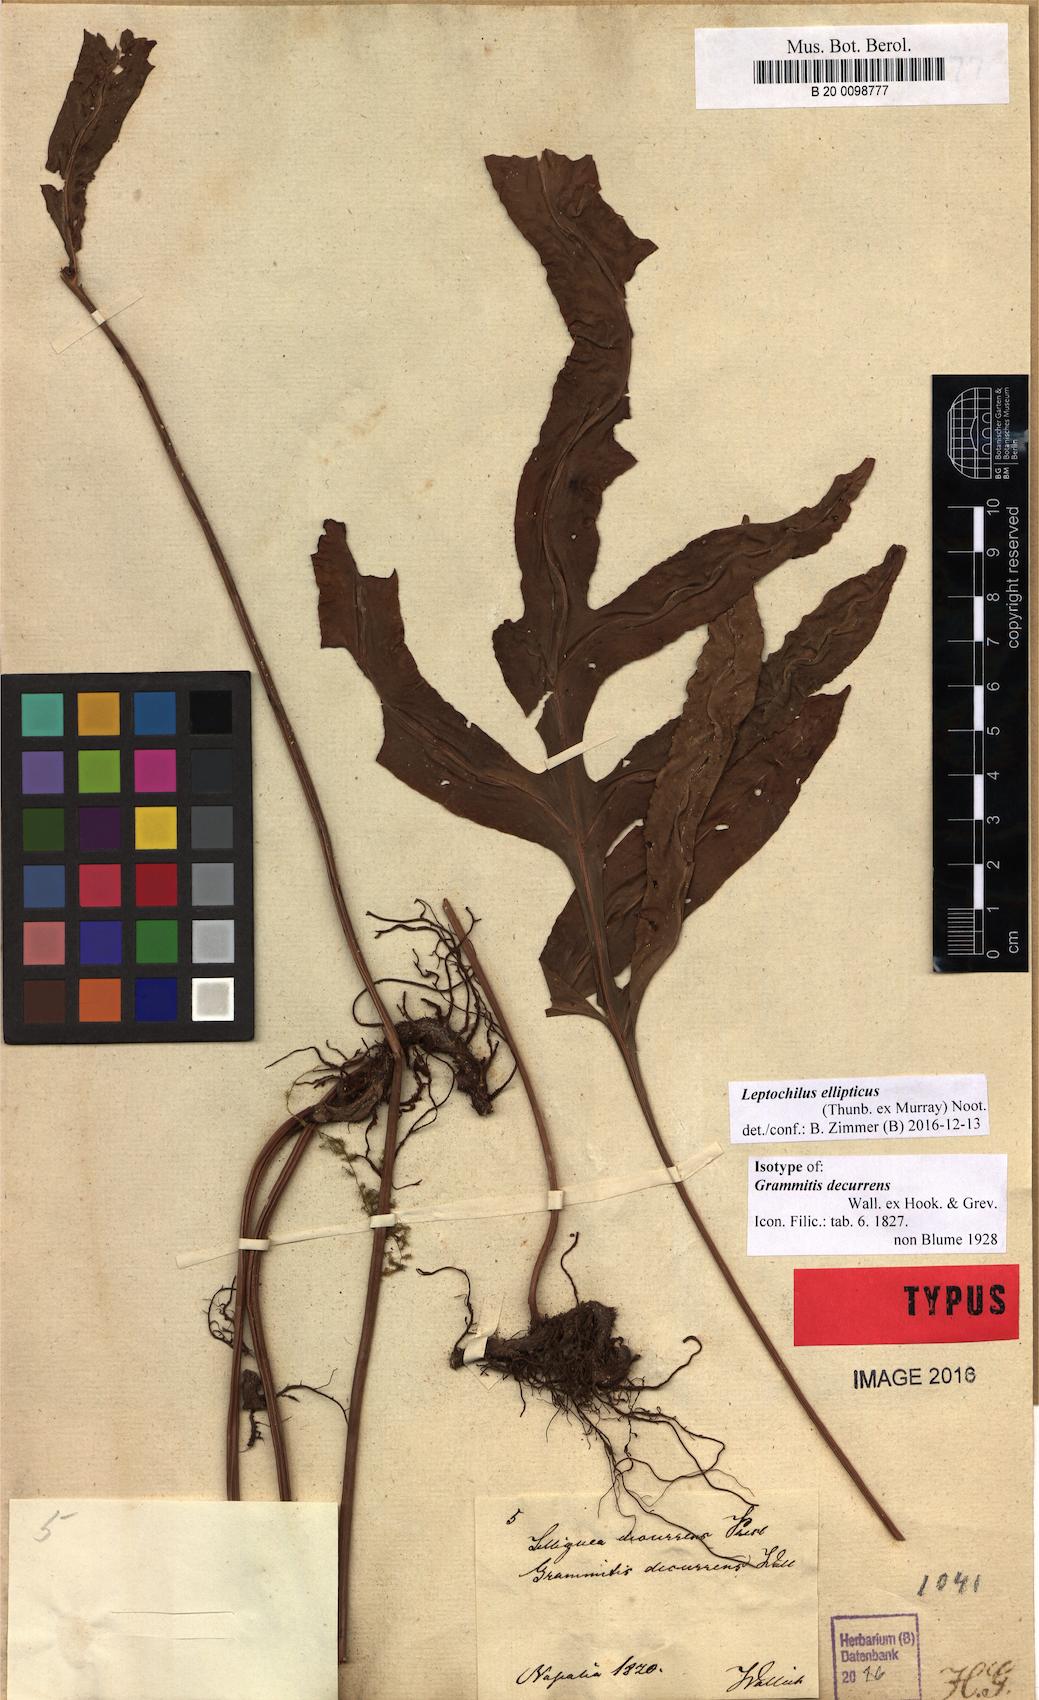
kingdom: Plantae
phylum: Tracheophyta
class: Polypodiopsida
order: Polypodiales
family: Polypodiaceae
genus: Leptochilus
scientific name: Leptochilus ellipticus
